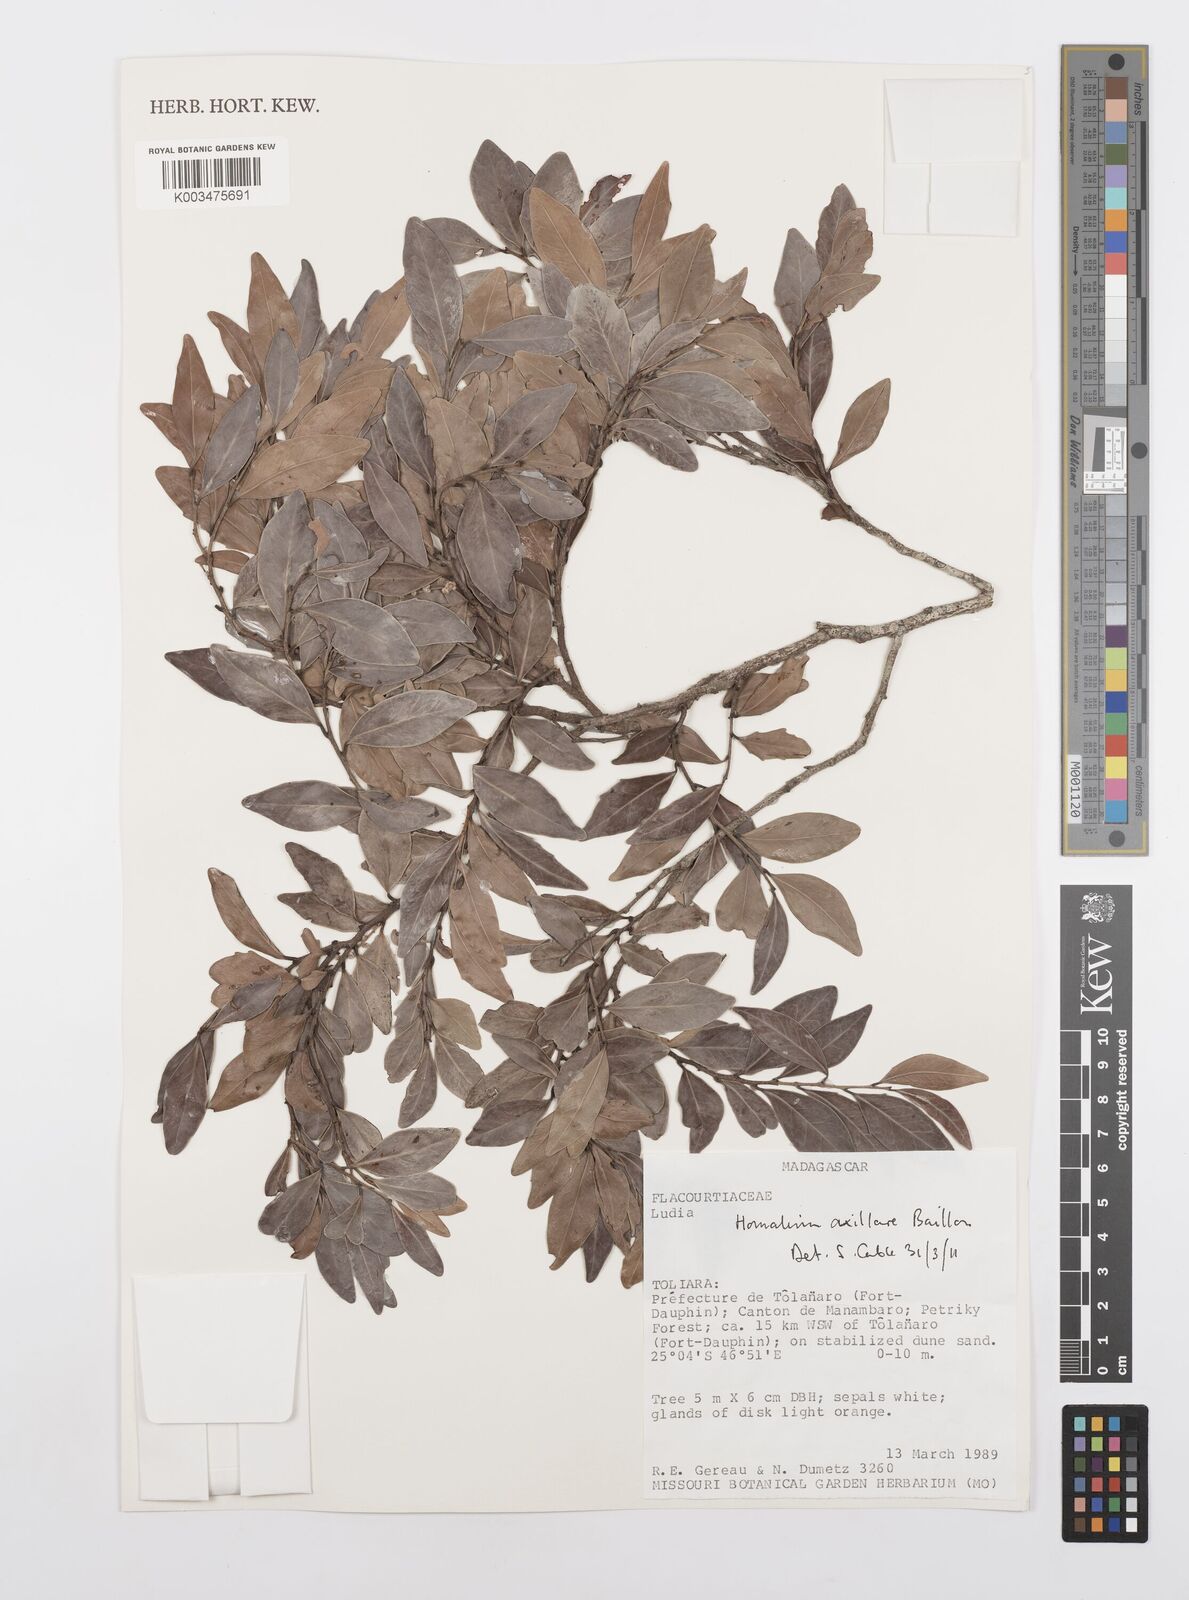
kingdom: Plantae
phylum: Tracheophyta
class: Magnoliopsida
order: Malpighiales
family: Salicaceae
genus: Homalium
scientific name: Homalium axillare
